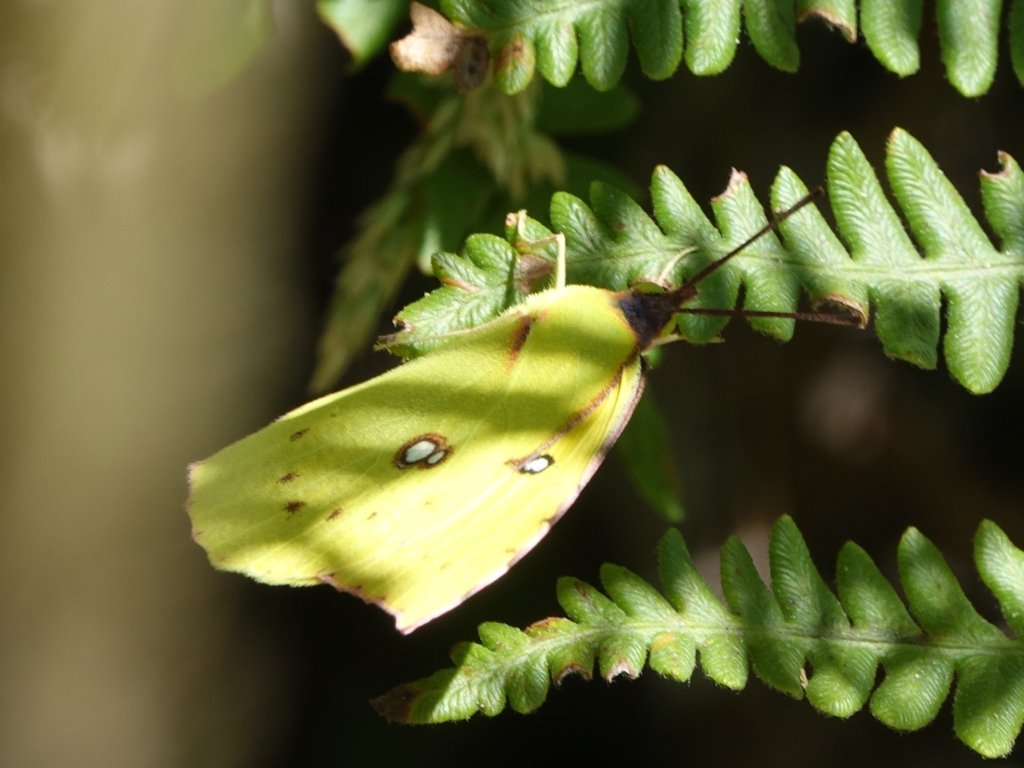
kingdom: Animalia
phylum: Arthropoda
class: Insecta
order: Lepidoptera
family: Pieridae
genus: Zerene
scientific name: Zerene eurydice
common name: California Dogface
